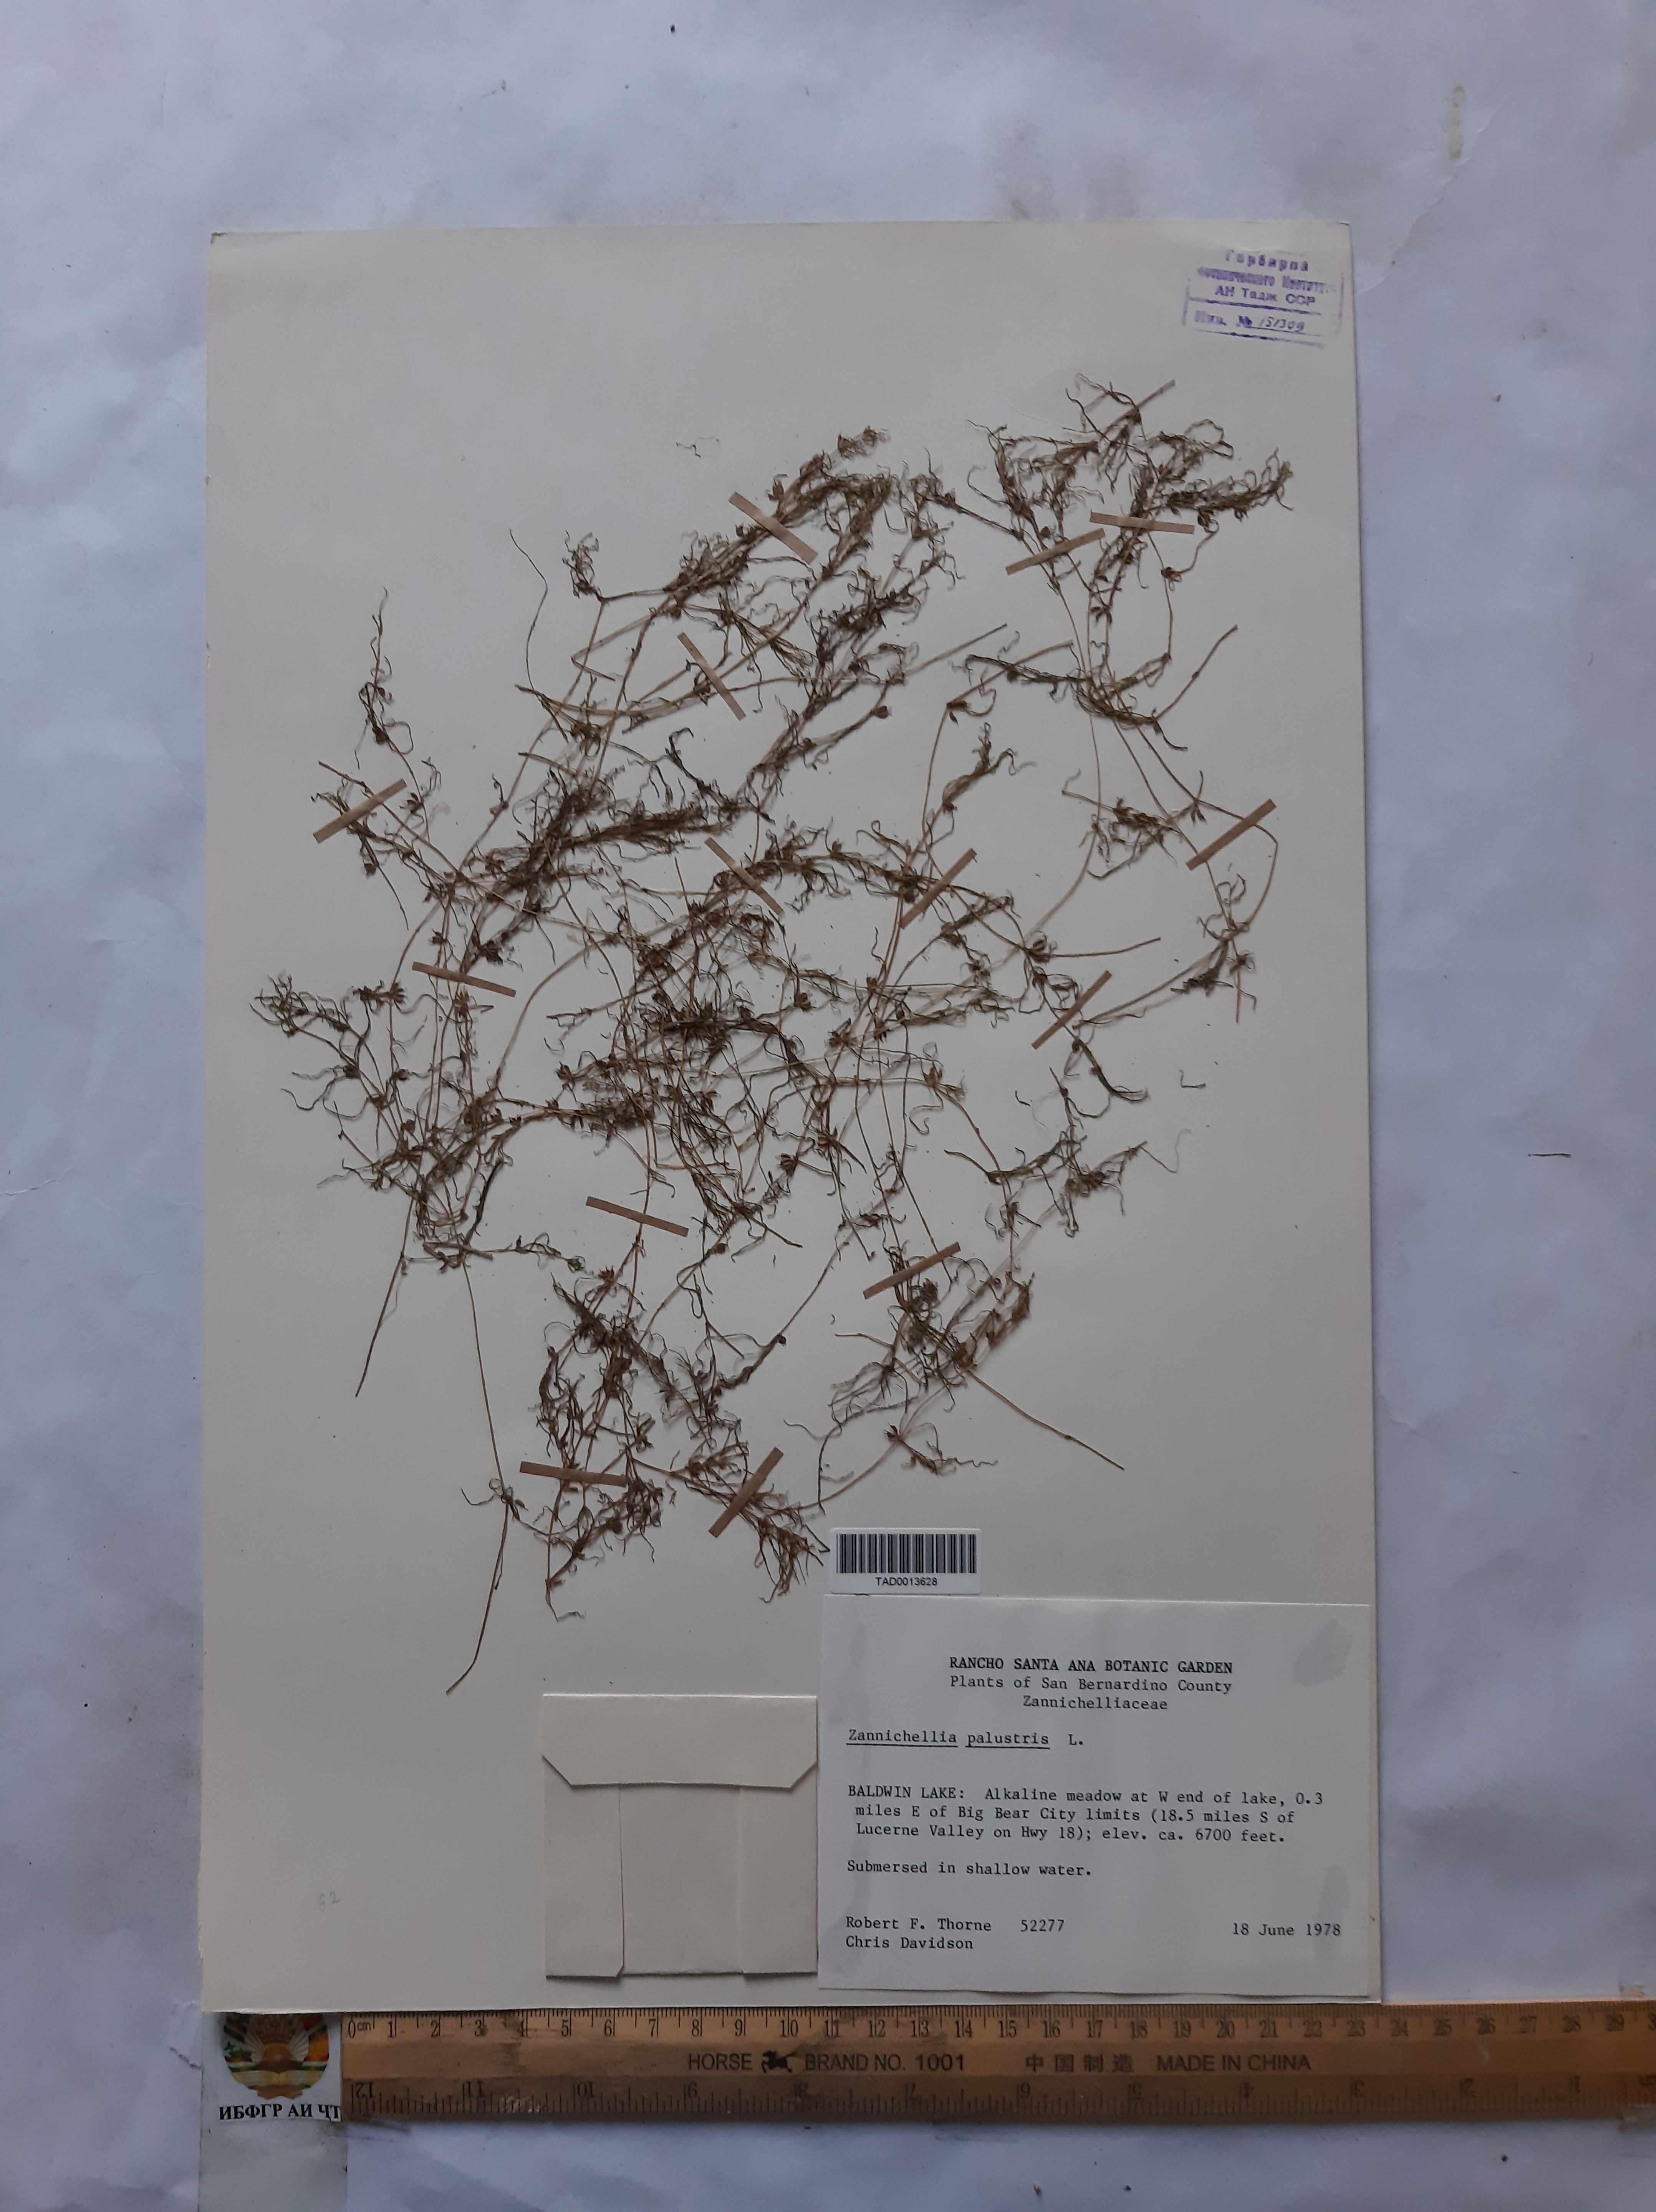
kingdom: Plantae
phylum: Tracheophyta
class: Liliopsida
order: Alismatales
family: Potamogetonaceae
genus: Zannichellia
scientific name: Zannichellia palustris
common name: Horned pondweed
